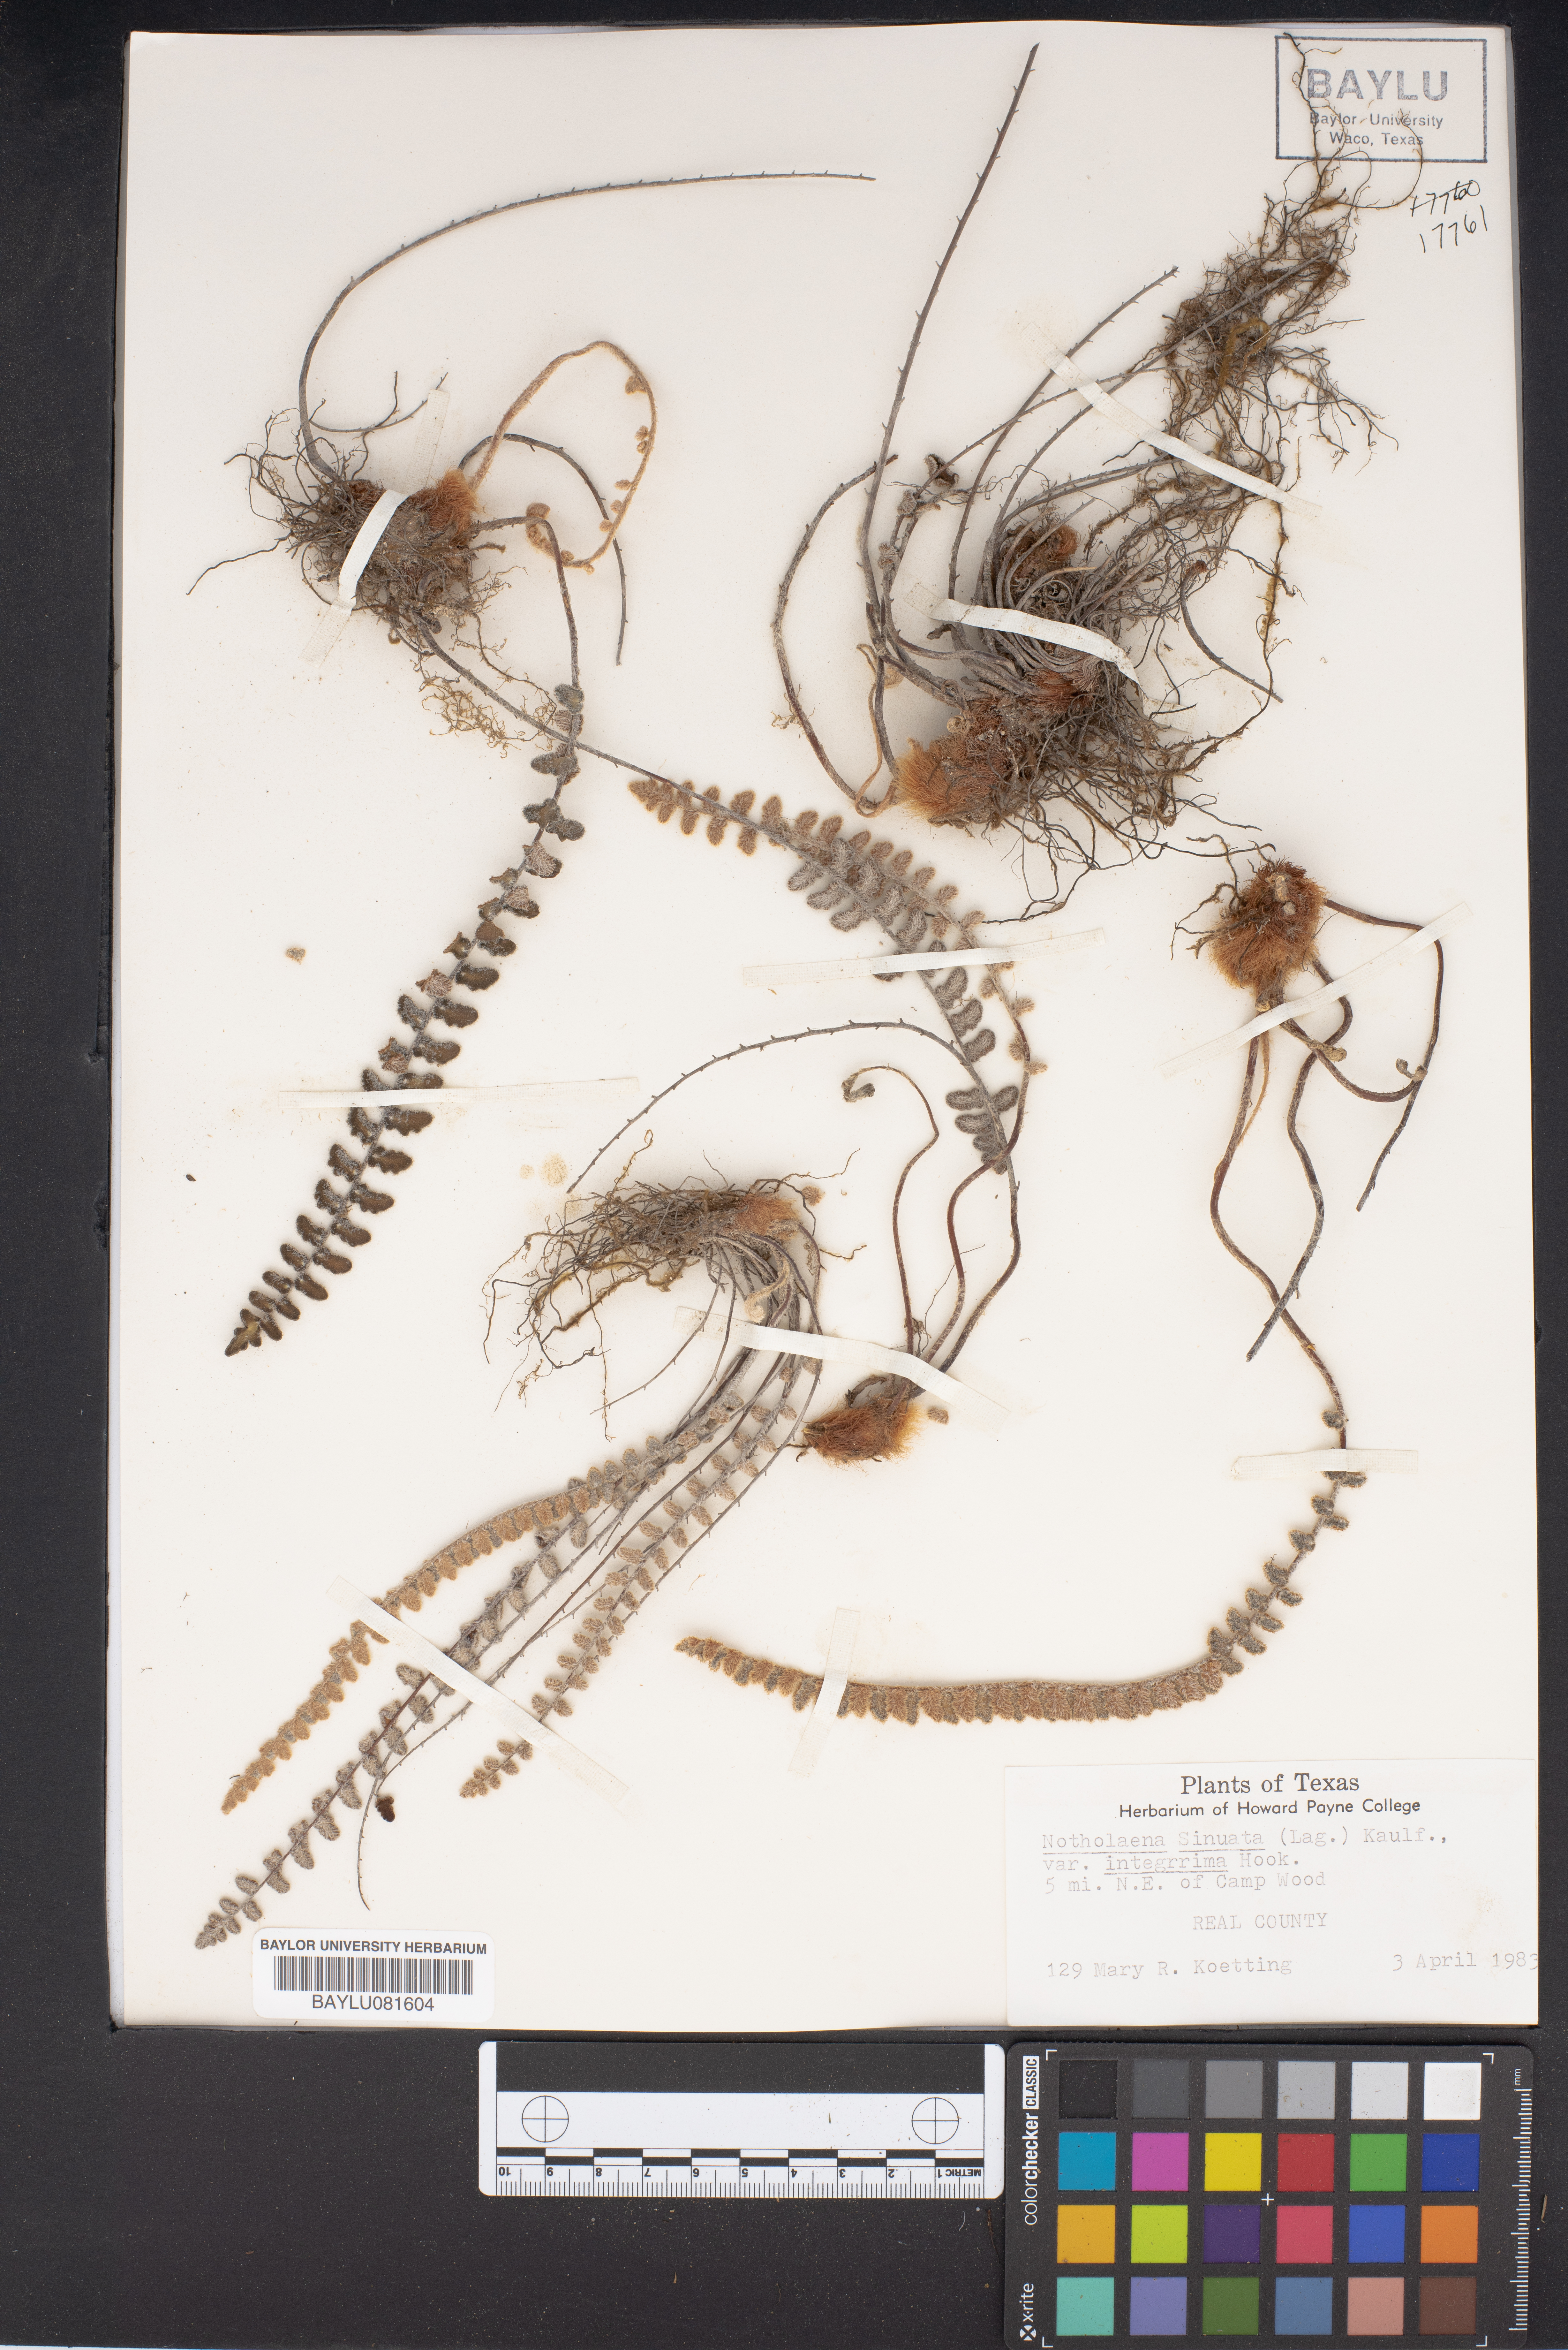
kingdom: Plantae
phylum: Tracheophyta
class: Polypodiopsida
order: Polypodiales
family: Pteridaceae
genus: Astrolepis
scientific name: Astrolepis integerrima
